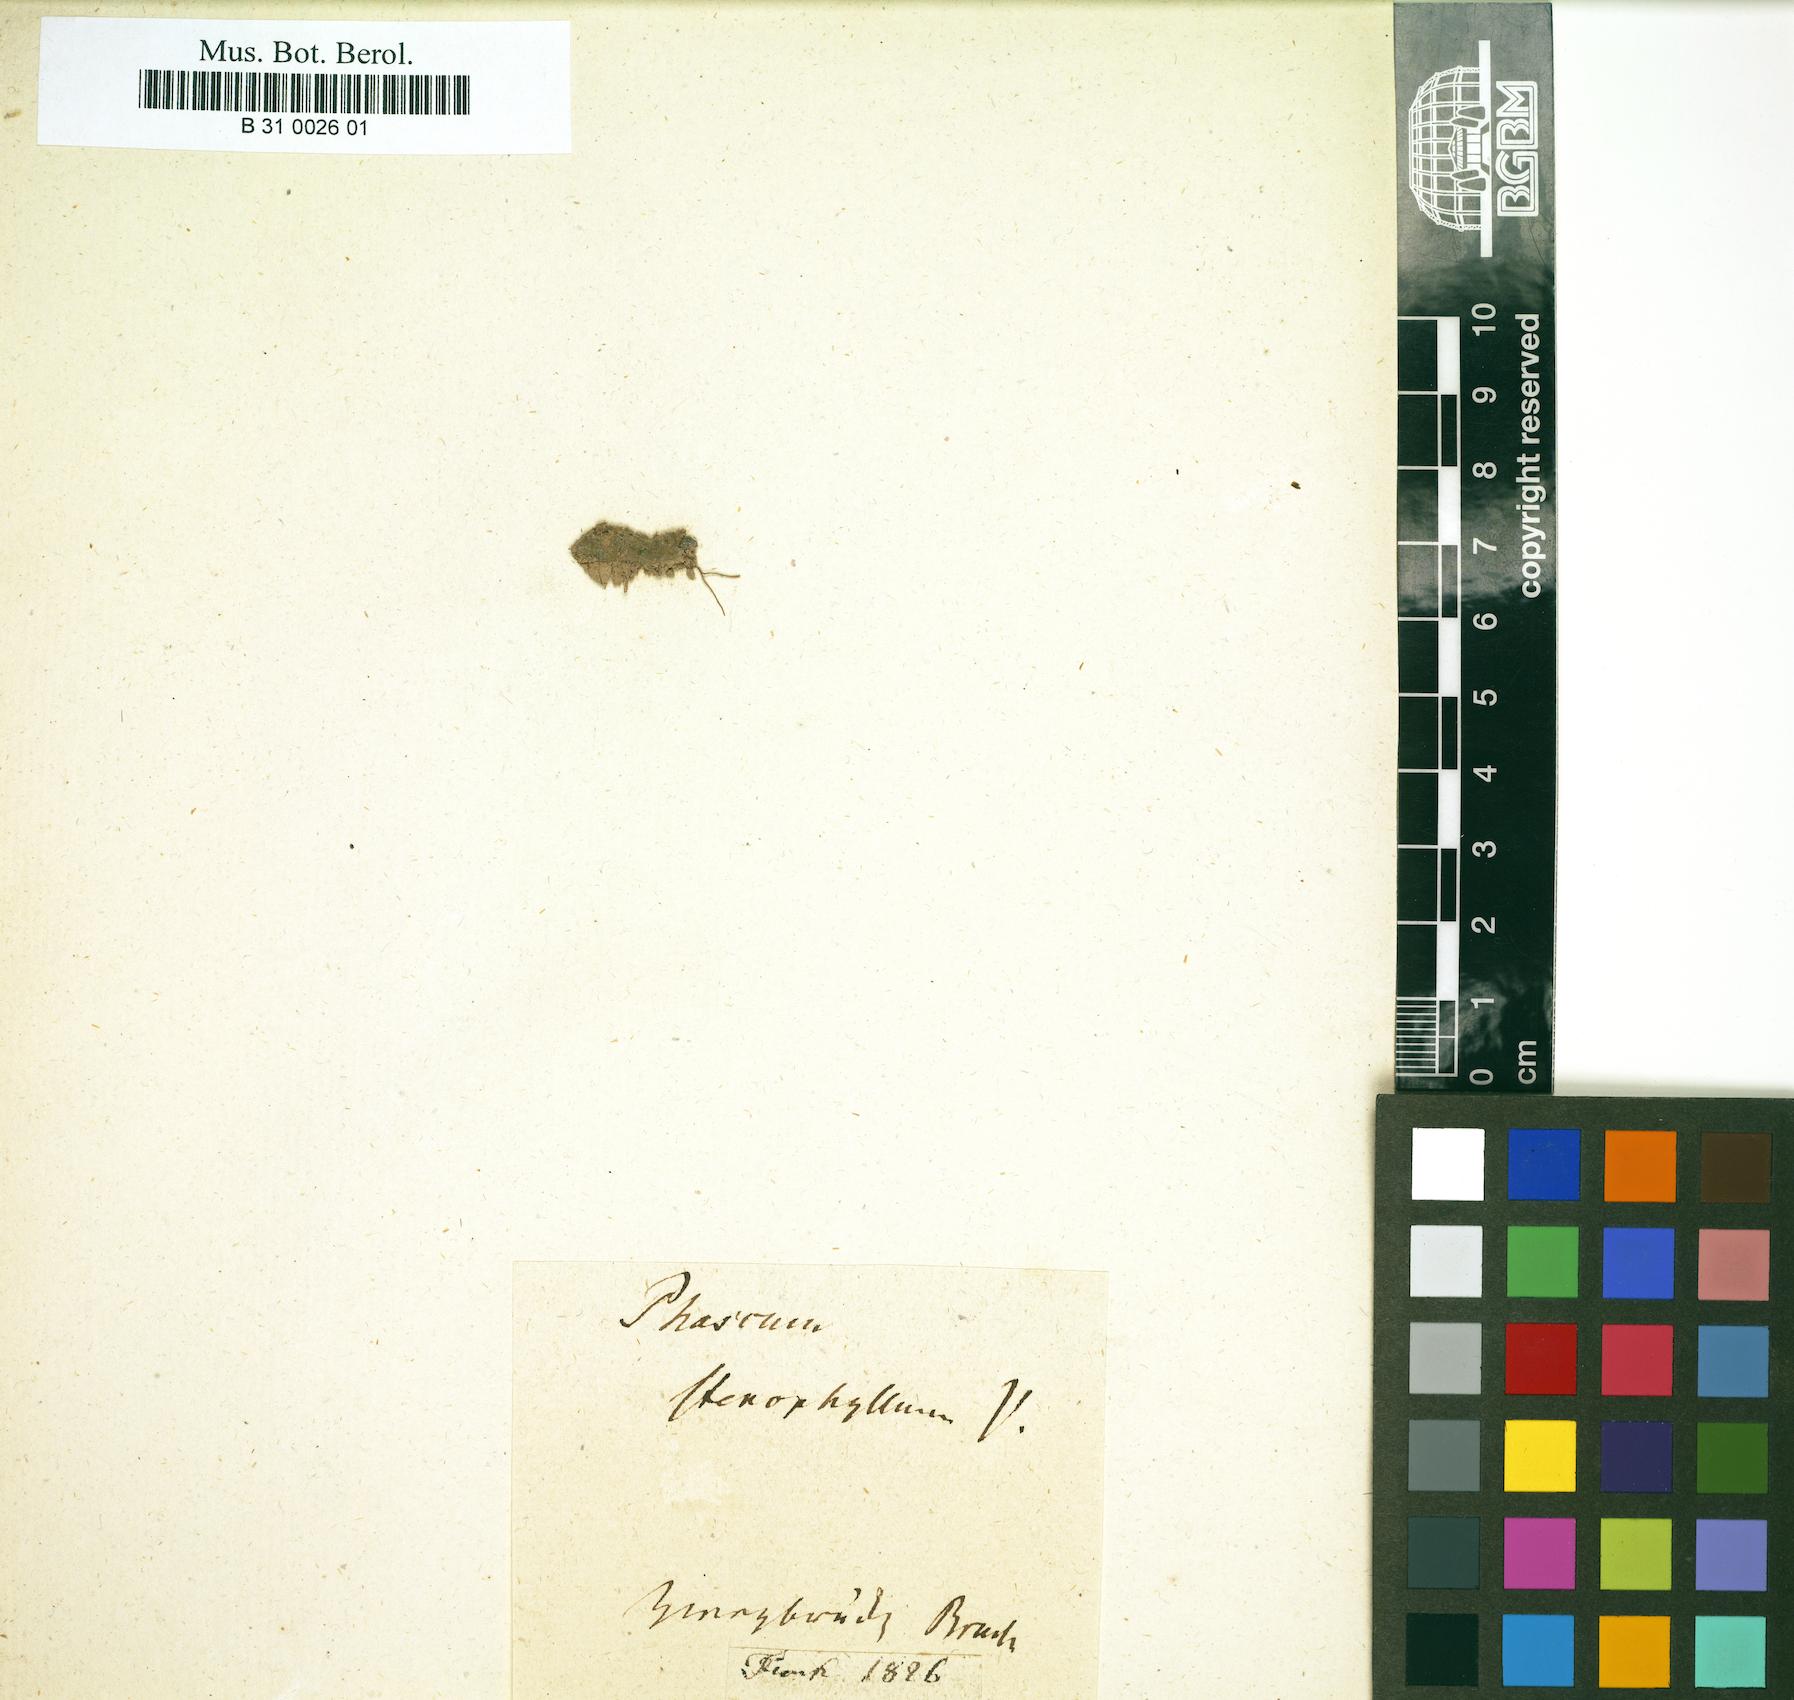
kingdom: Plantae
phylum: Bryophyta
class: Bryopsida
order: Pottiales
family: Ephemeraceae
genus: Ephemerum
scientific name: Ephemerum crassinervium
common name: Thick-nerved earth moss
